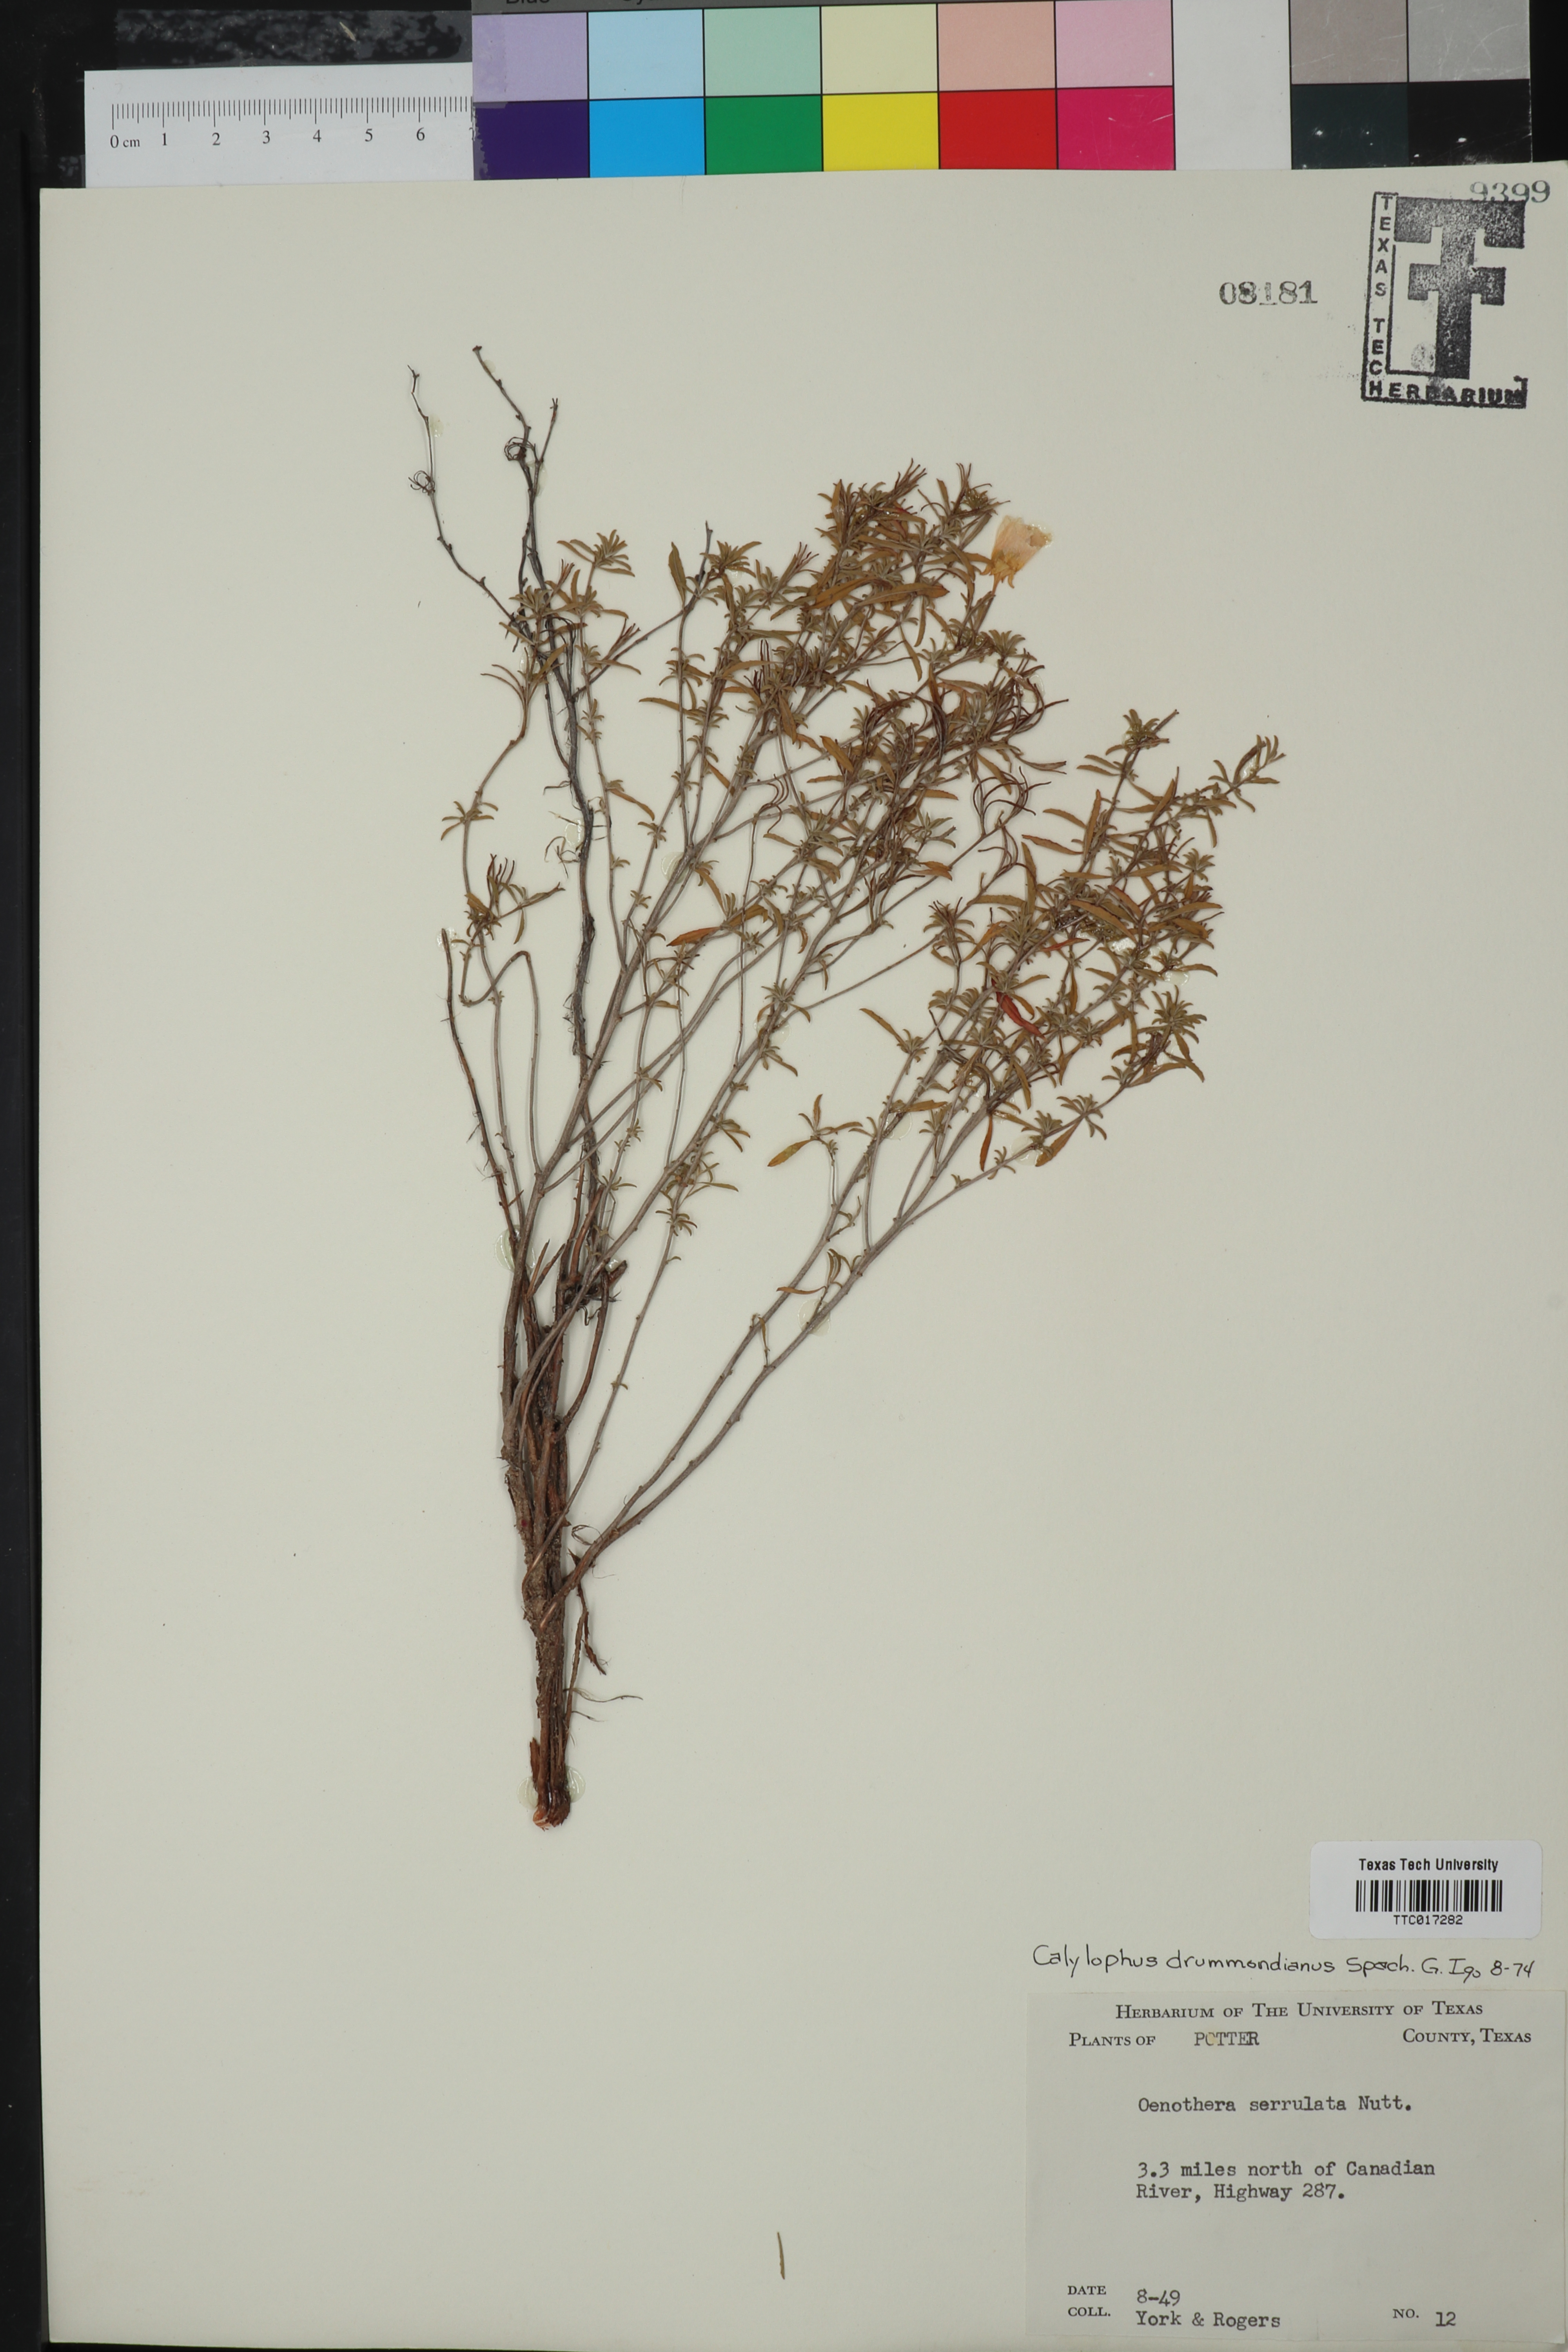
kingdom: Plantae
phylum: Tracheophyta
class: Magnoliopsida
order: Myrtales
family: Onagraceae
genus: Oenothera
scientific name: Oenothera serrulata
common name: Half-shrub calylophus
